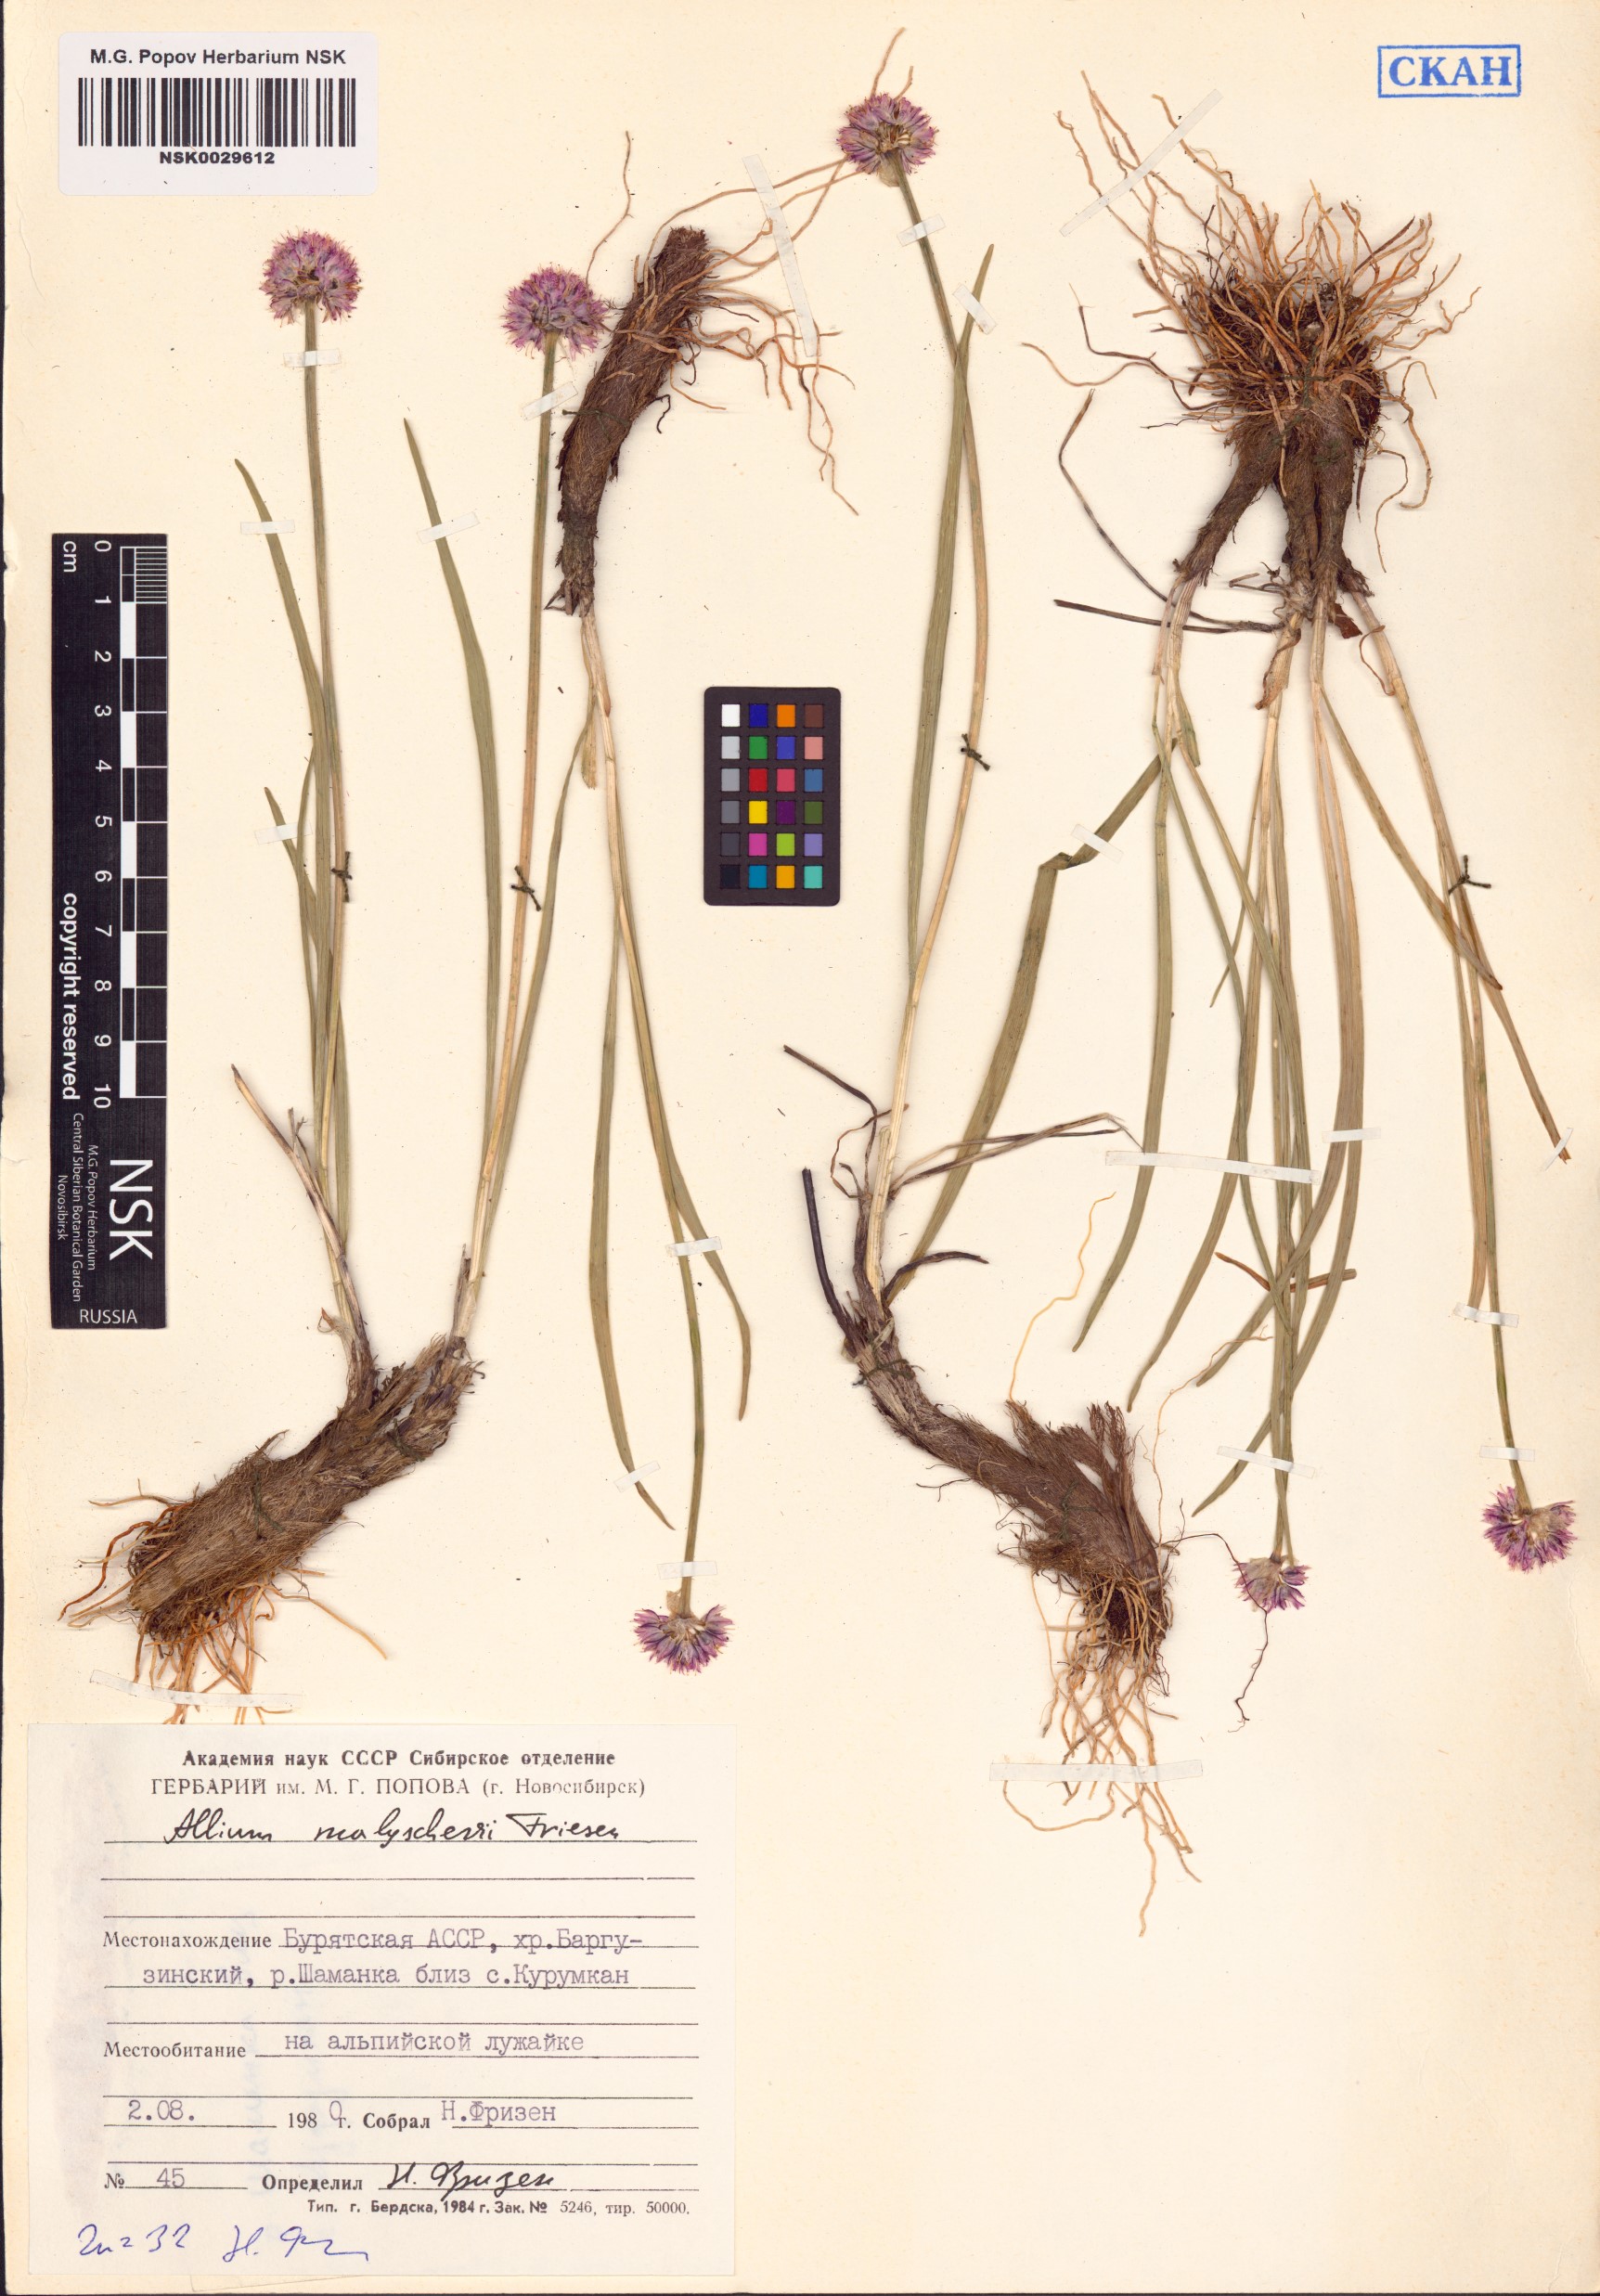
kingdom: Plantae
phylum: Tracheophyta
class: Liliopsida
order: Asparagales
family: Amaryllidaceae
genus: Allium
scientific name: Allium malyschevii
